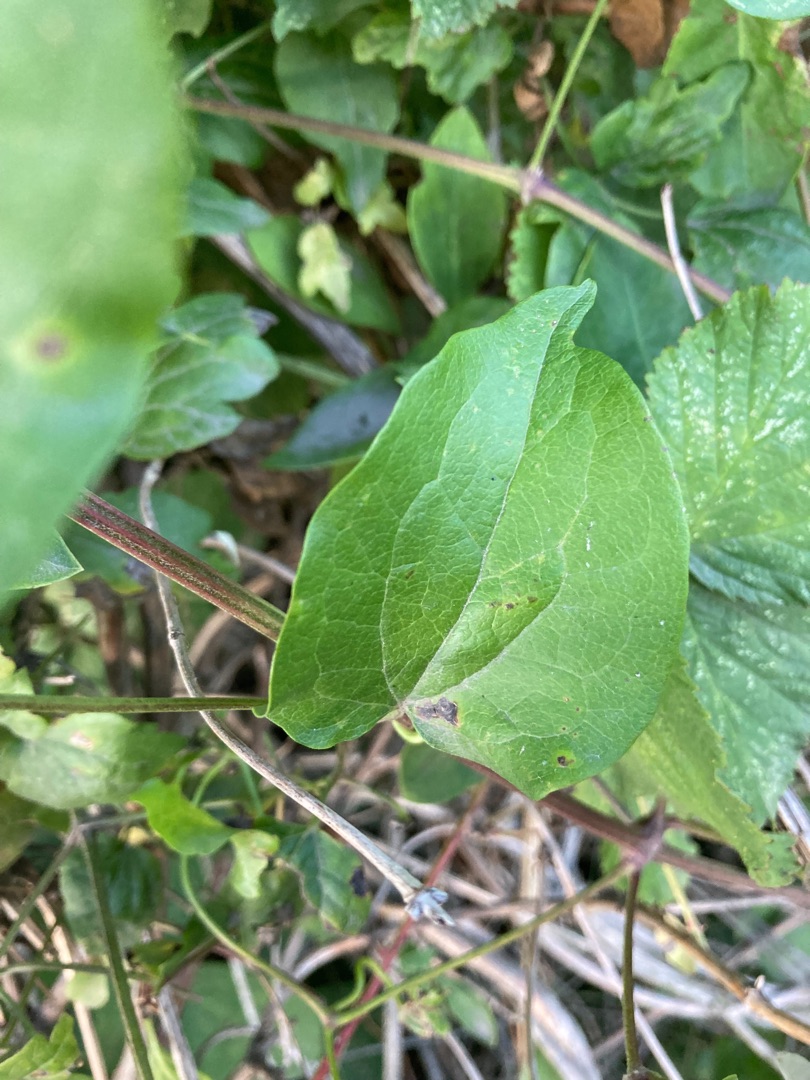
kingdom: Plantae
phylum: Tracheophyta
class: Magnoliopsida
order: Ranunculales
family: Ranunculaceae
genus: Clematis
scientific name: Clematis vitalba
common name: Skovranke
